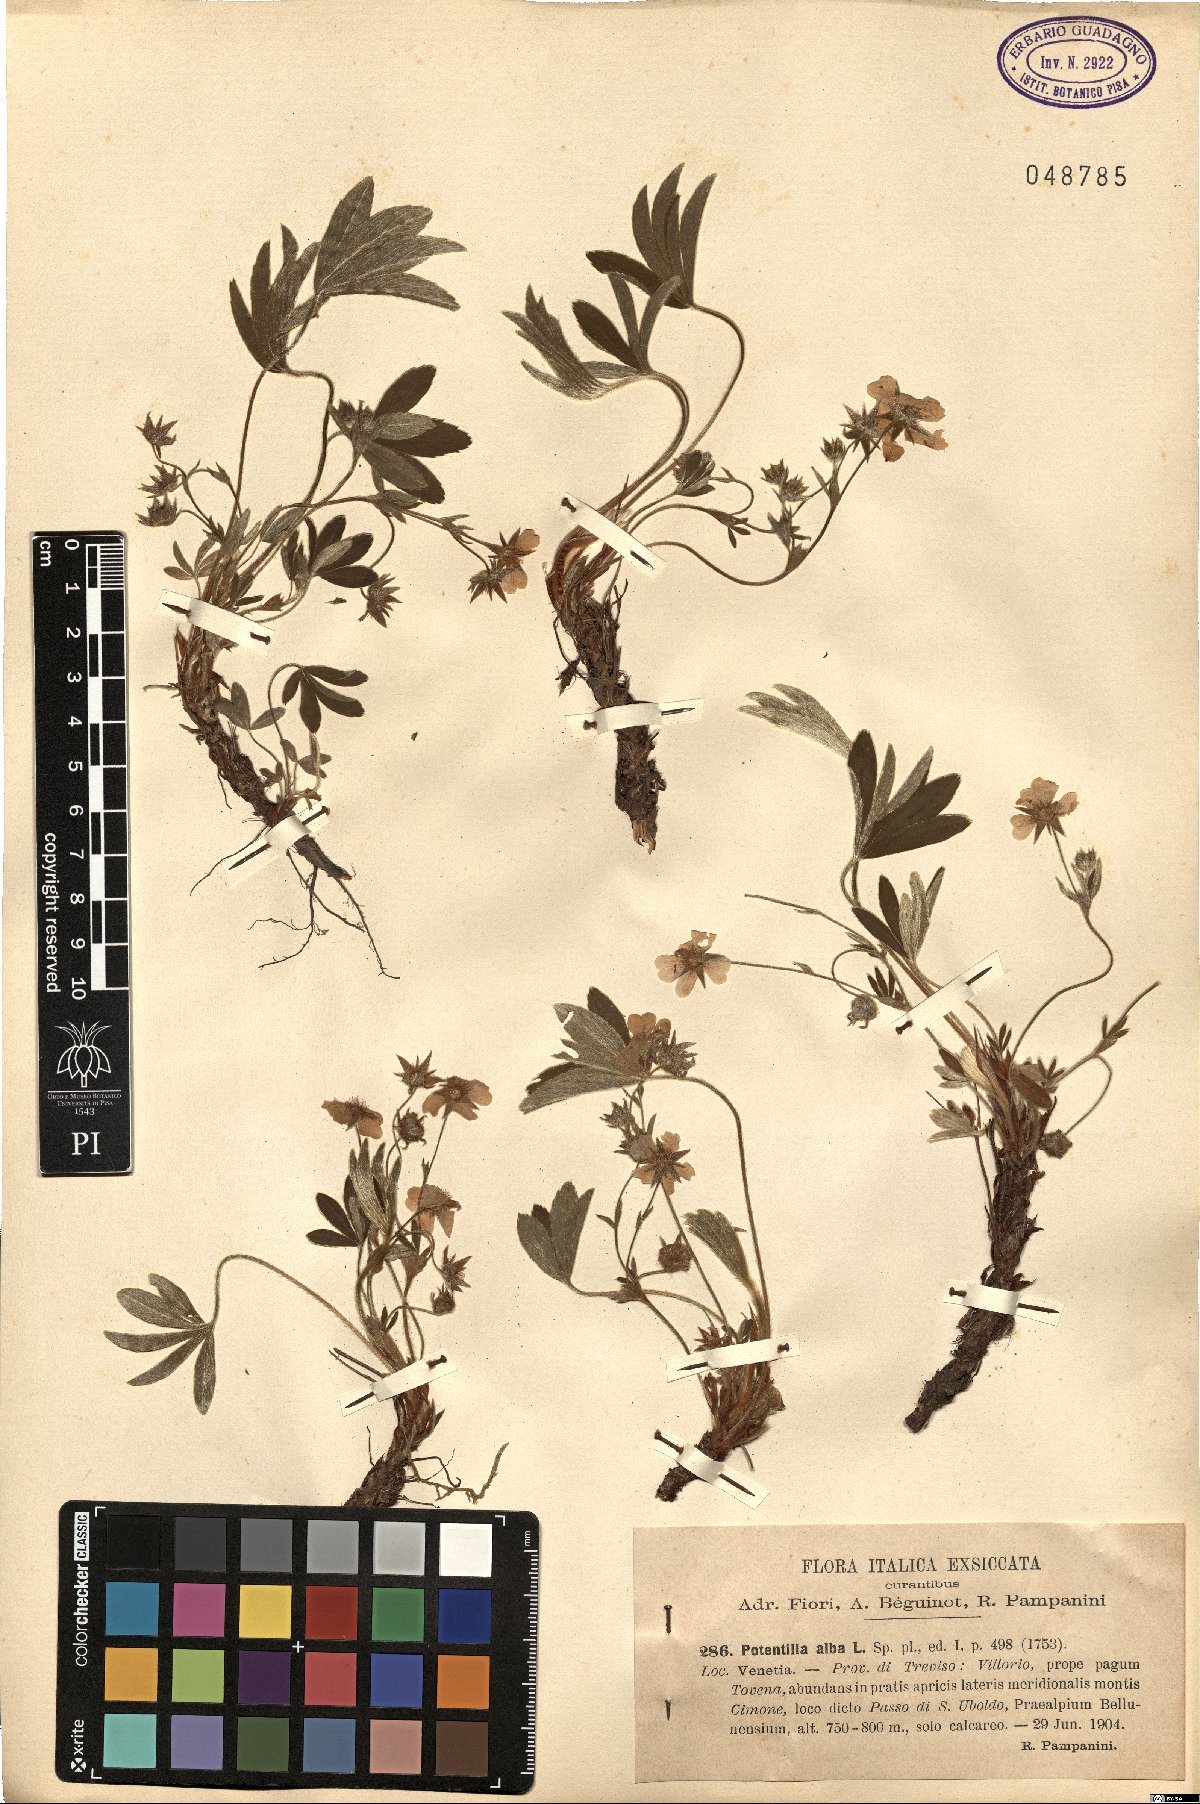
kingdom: Plantae
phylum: Tracheophyta
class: Magnoliopsida
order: Rosales
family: Rosaceae
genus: Potentilla
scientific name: Potentilla alba
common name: White cinquefoil
